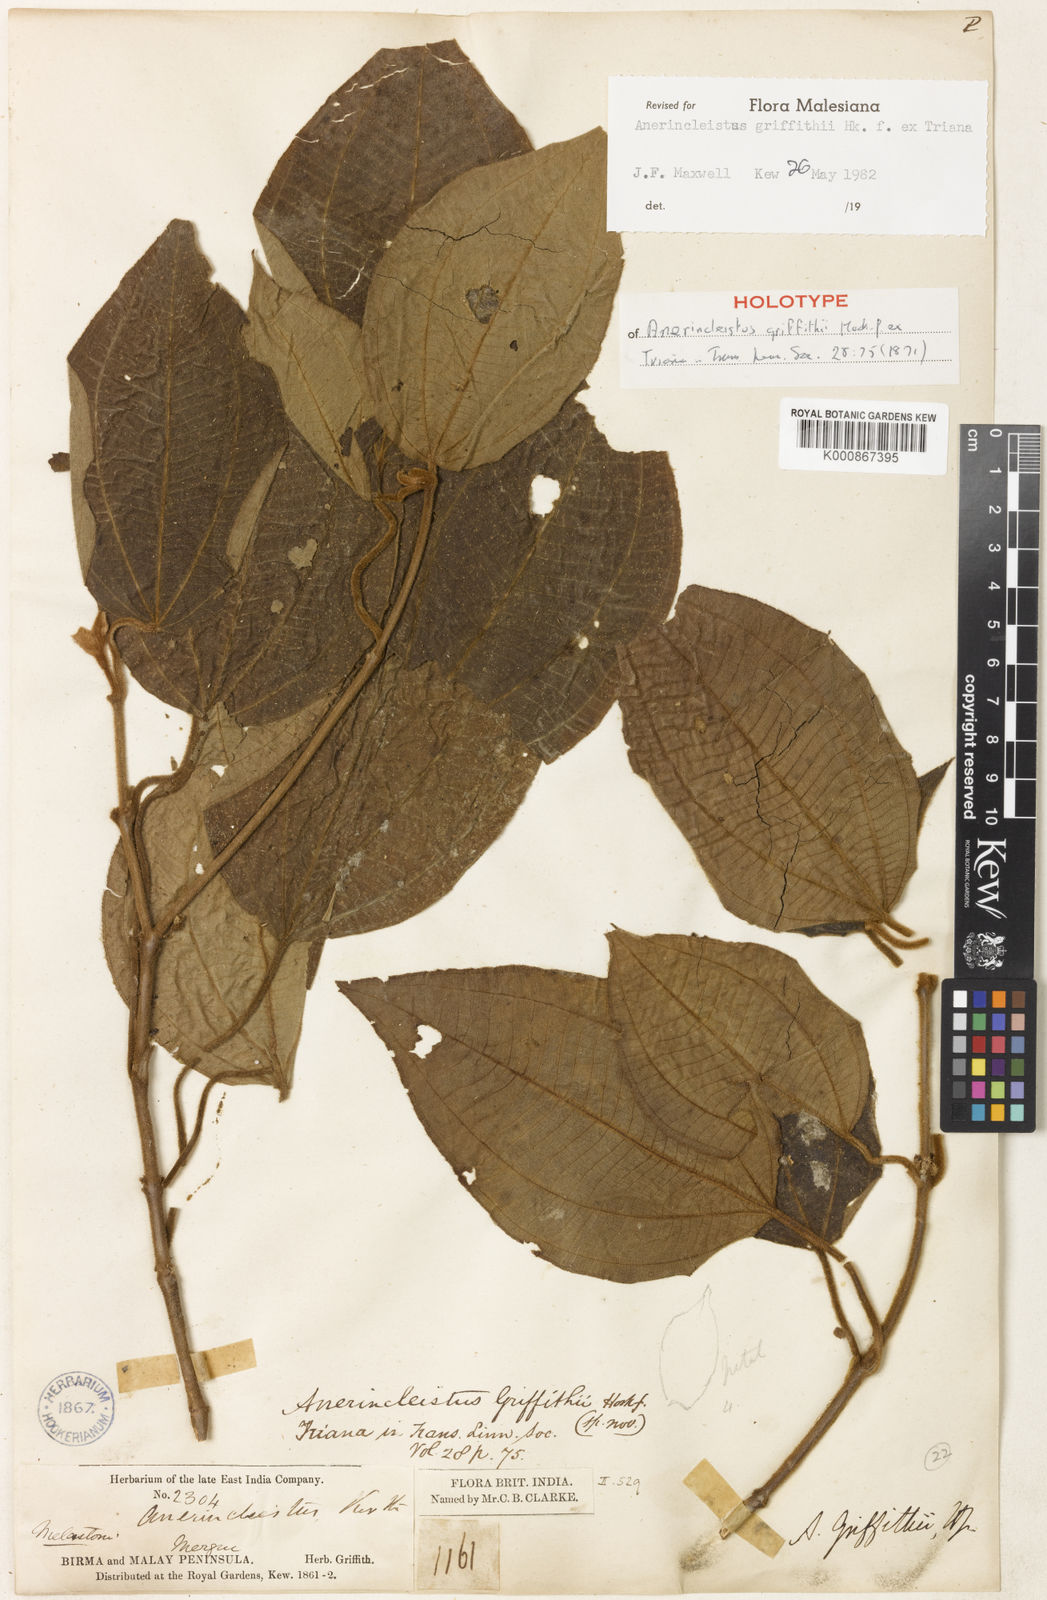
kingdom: Plantae
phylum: Tracheophyta
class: Magnoliopsida
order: Myrtales
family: Melastomataceae
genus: Anerincleistus
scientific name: Anerincleistus griffithii
